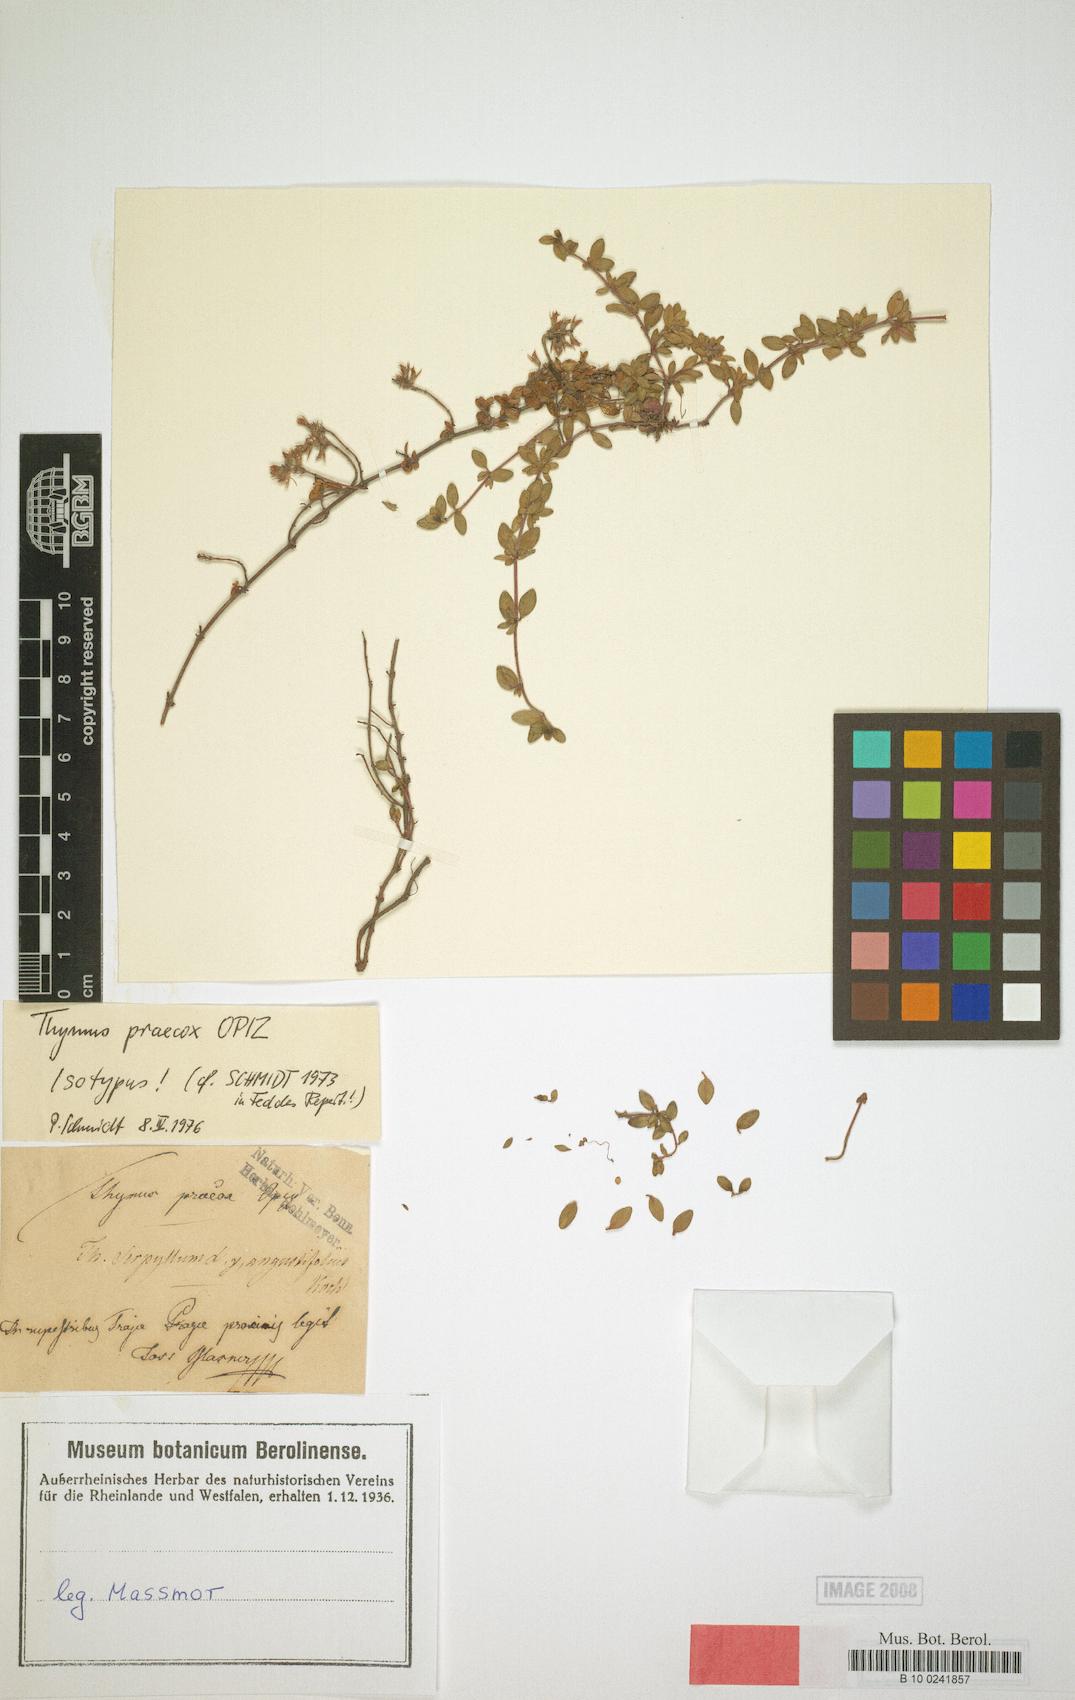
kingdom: Plantae
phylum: Tracheophyta
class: Magnoliopsida
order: Lamiales
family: Lamiaceae
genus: Thymus
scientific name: Thymus praecox
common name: Wild thyme
